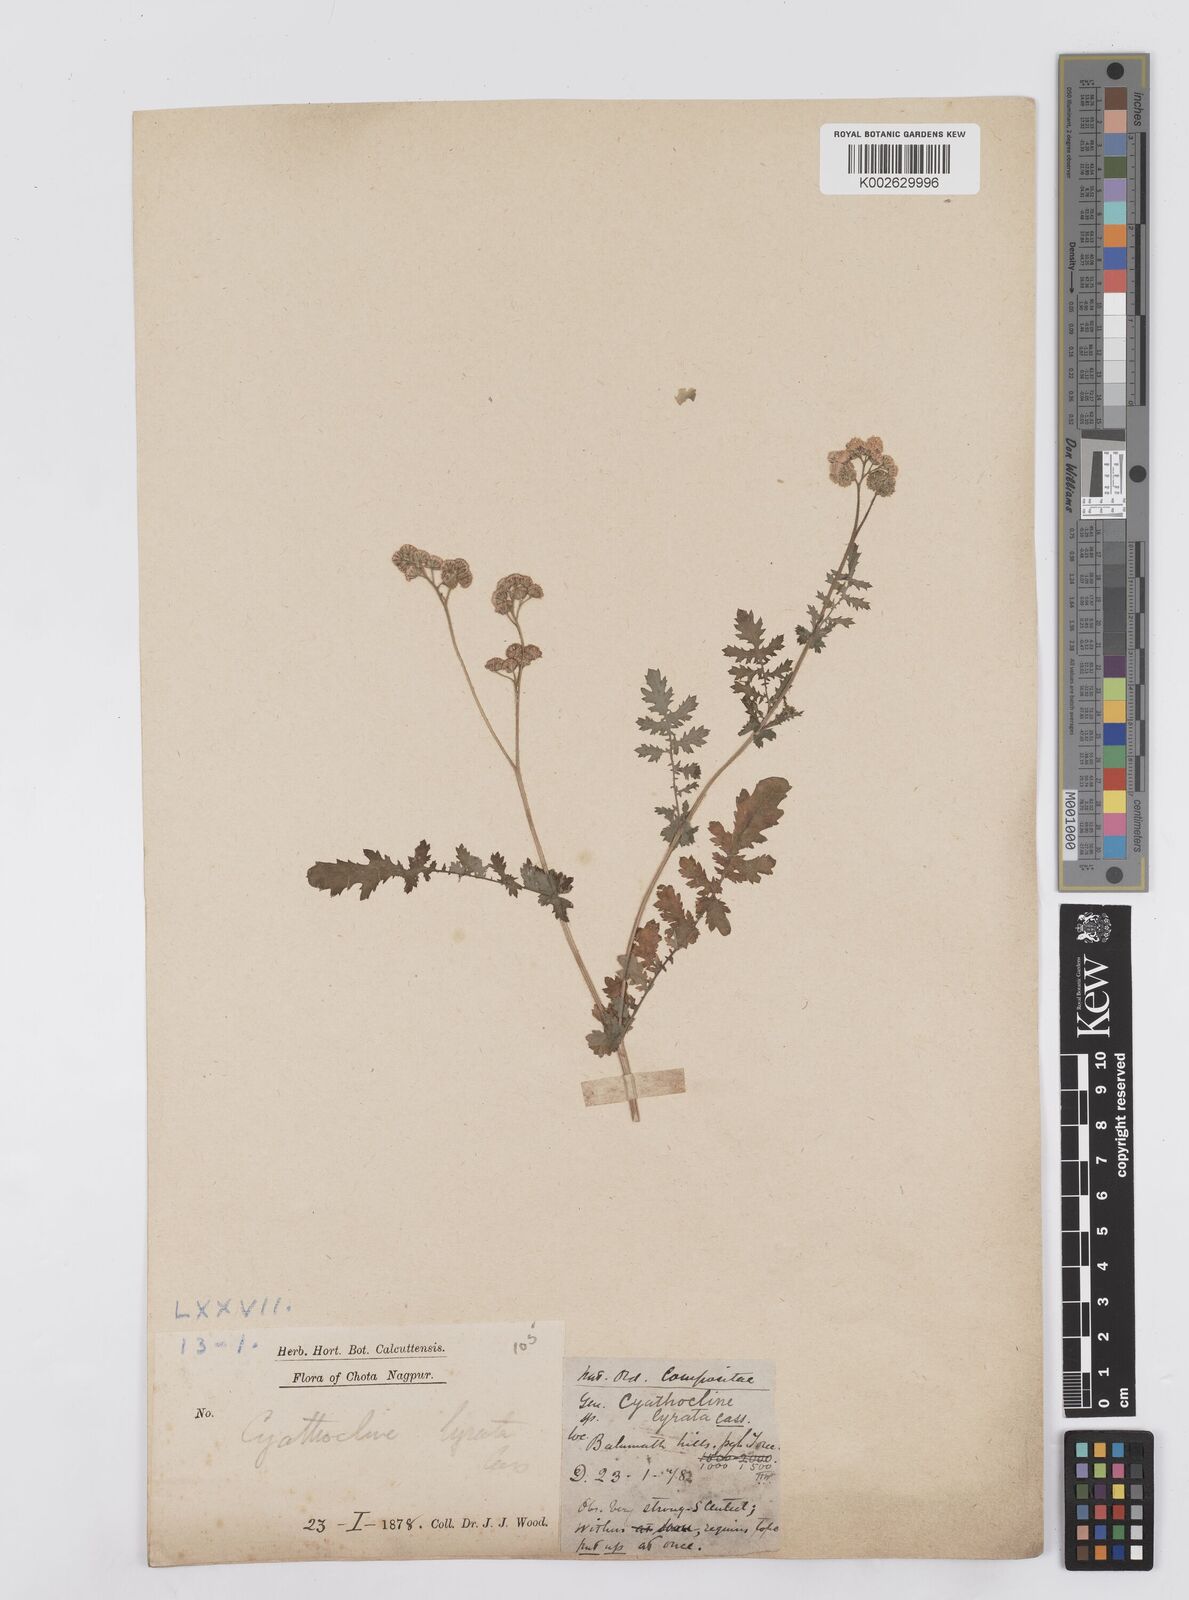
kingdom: Plantae
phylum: Tracheophyta
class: Magnoliopsida
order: Asterales
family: Asteraceae
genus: Cyathocline
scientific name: Cyathocline purpurea
